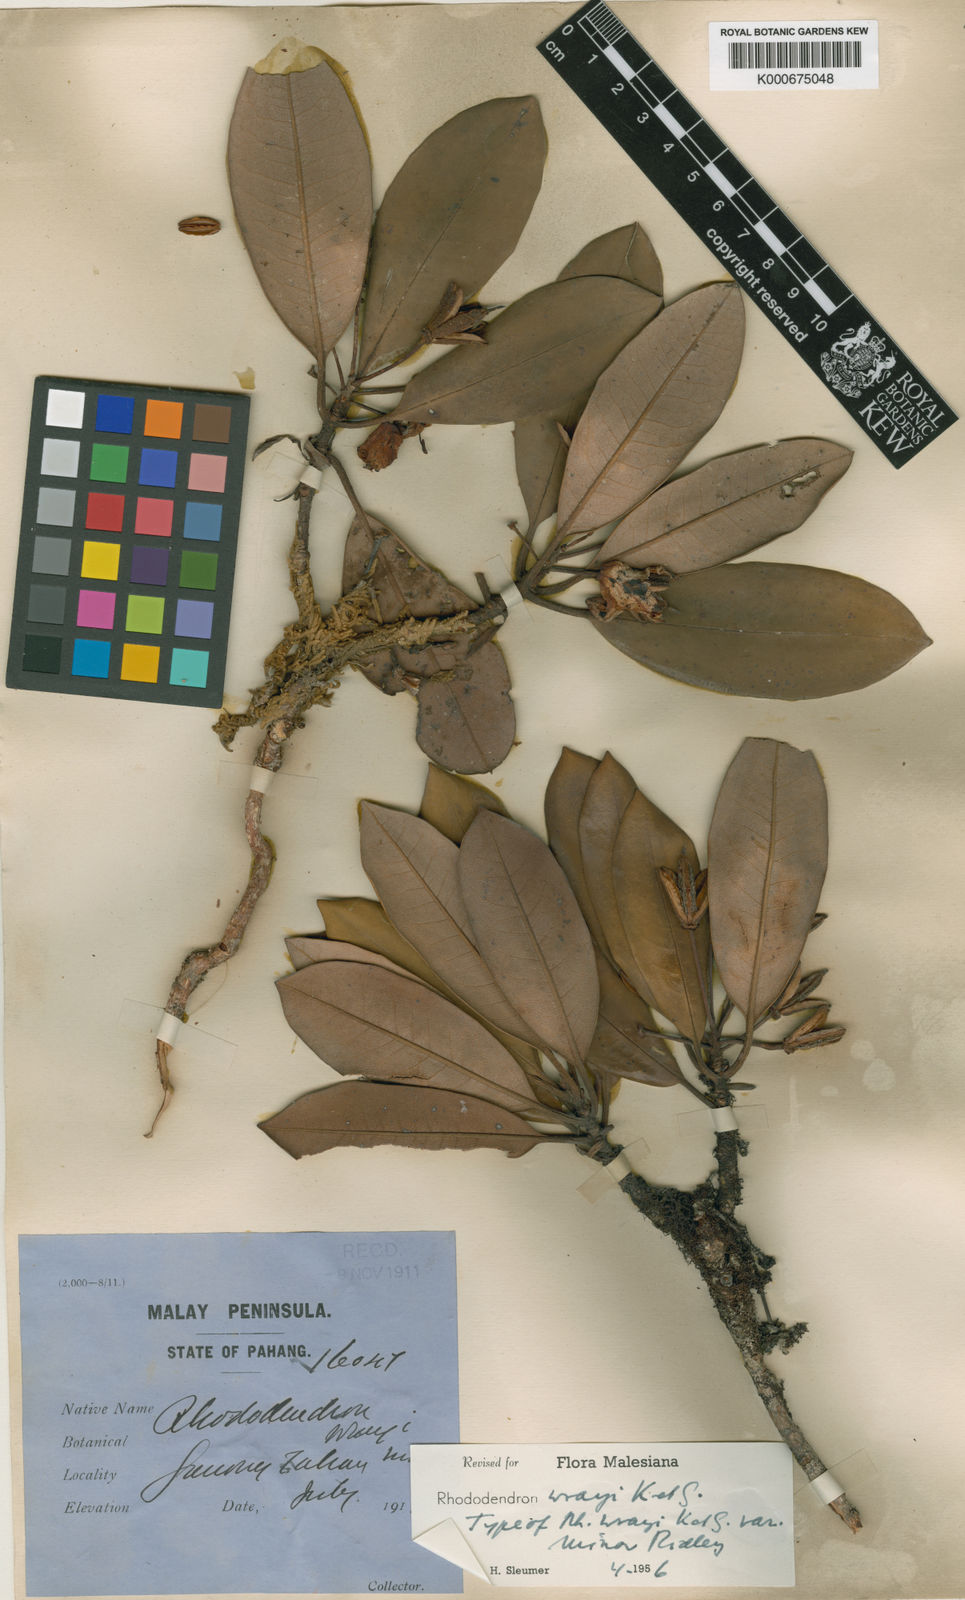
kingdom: Plantae
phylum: Tracheophyta
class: Magnoliopsida
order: Ericales
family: Ericaceae
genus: Rhododendron
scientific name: Rhododendron wrayi
